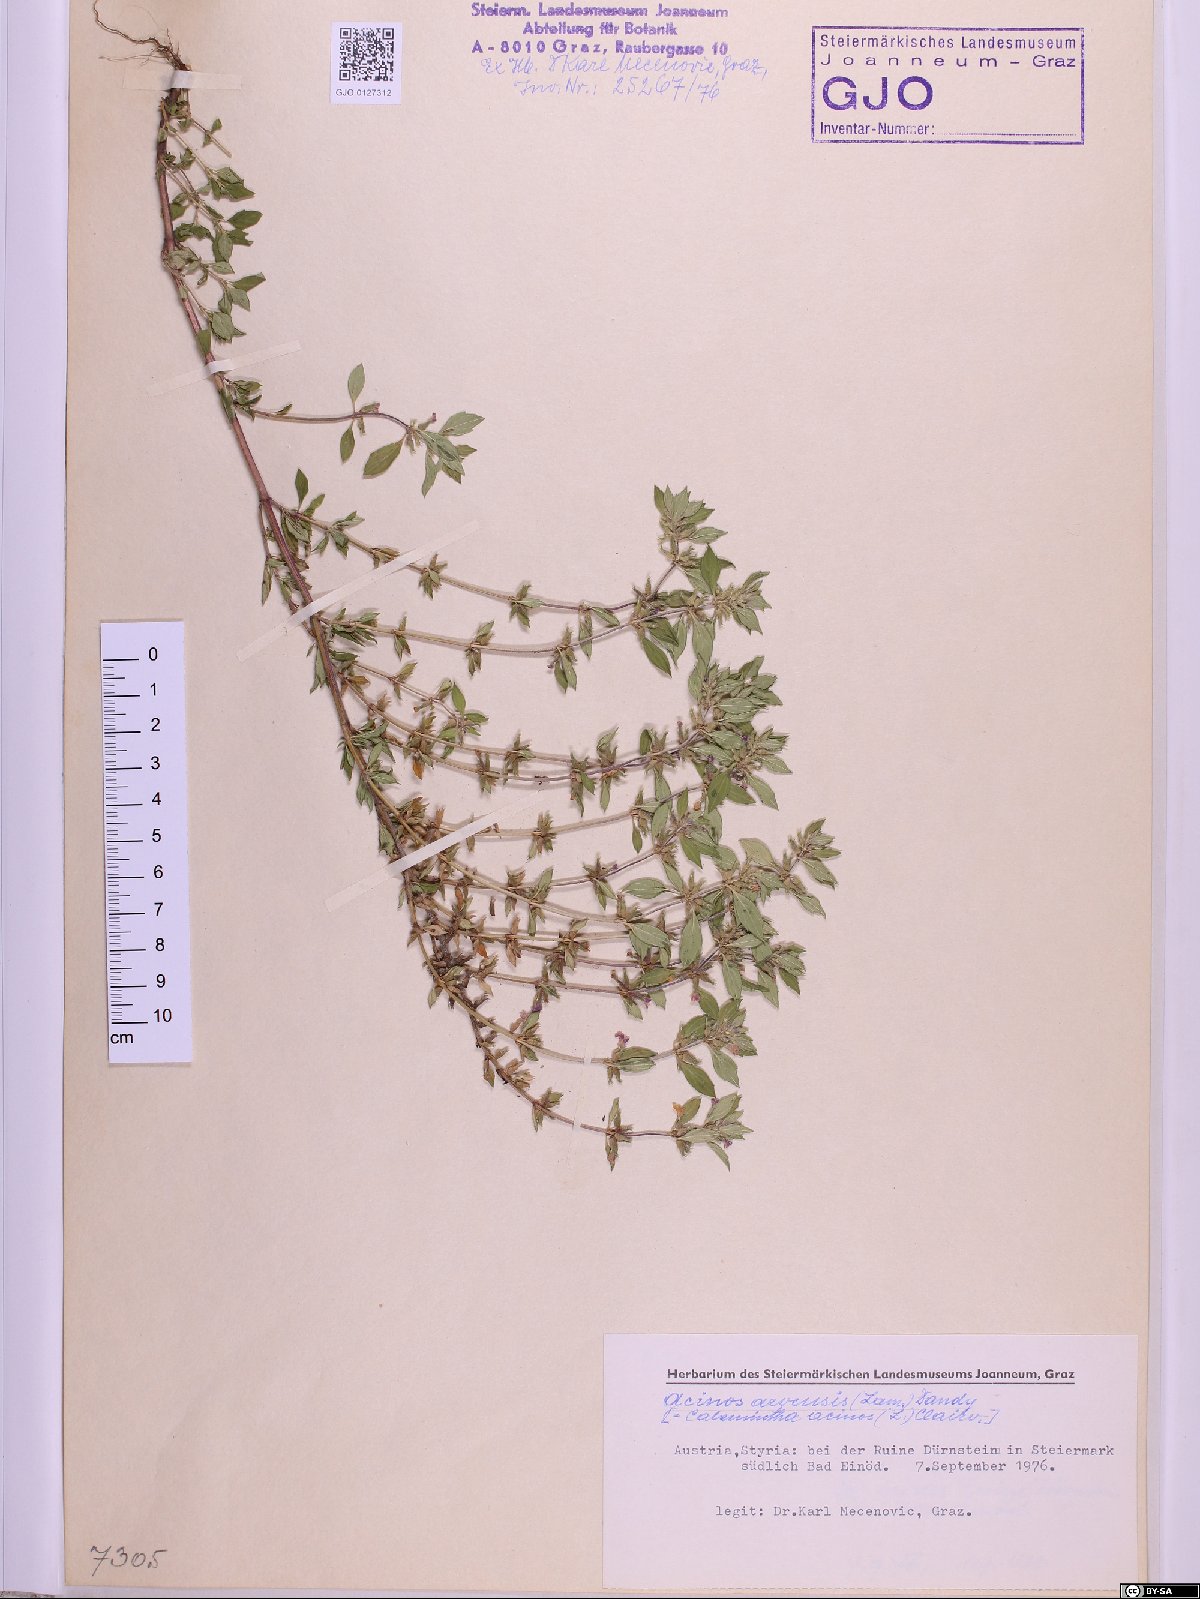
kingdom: Plantae
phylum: Tracheophyta
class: Magnoliopsida
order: Lamiales
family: Lamiaceae
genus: Clinopodium
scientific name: Clinopodium acinos
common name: Basil thyme
